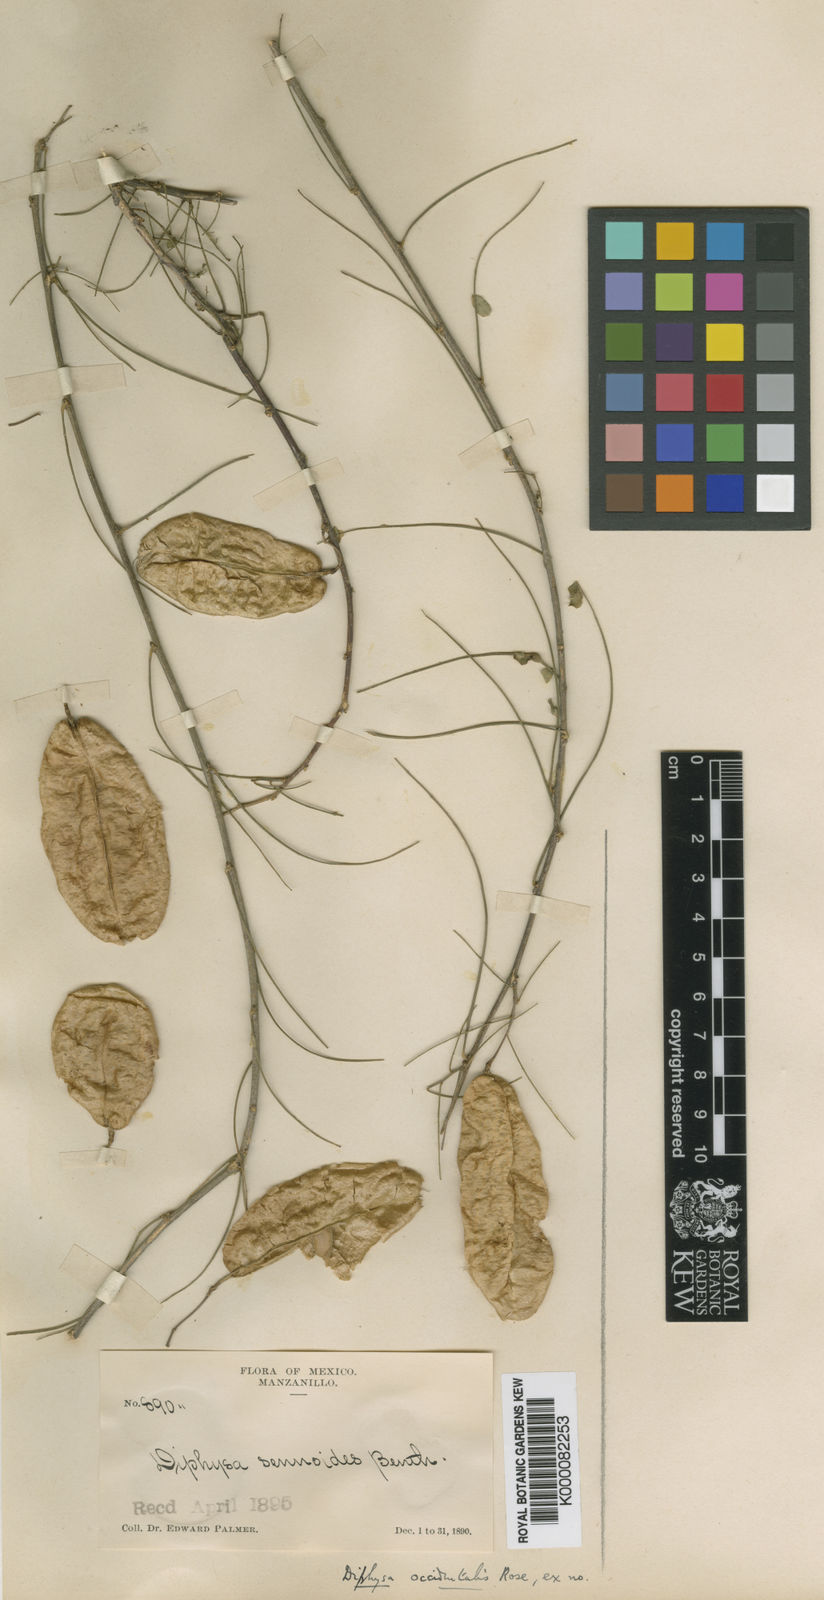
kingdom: Plantae
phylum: Tracheophyta
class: Magnoliopsida
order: Fabales
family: Fabaceae
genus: Diphysa
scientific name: Diphysa sennoides
